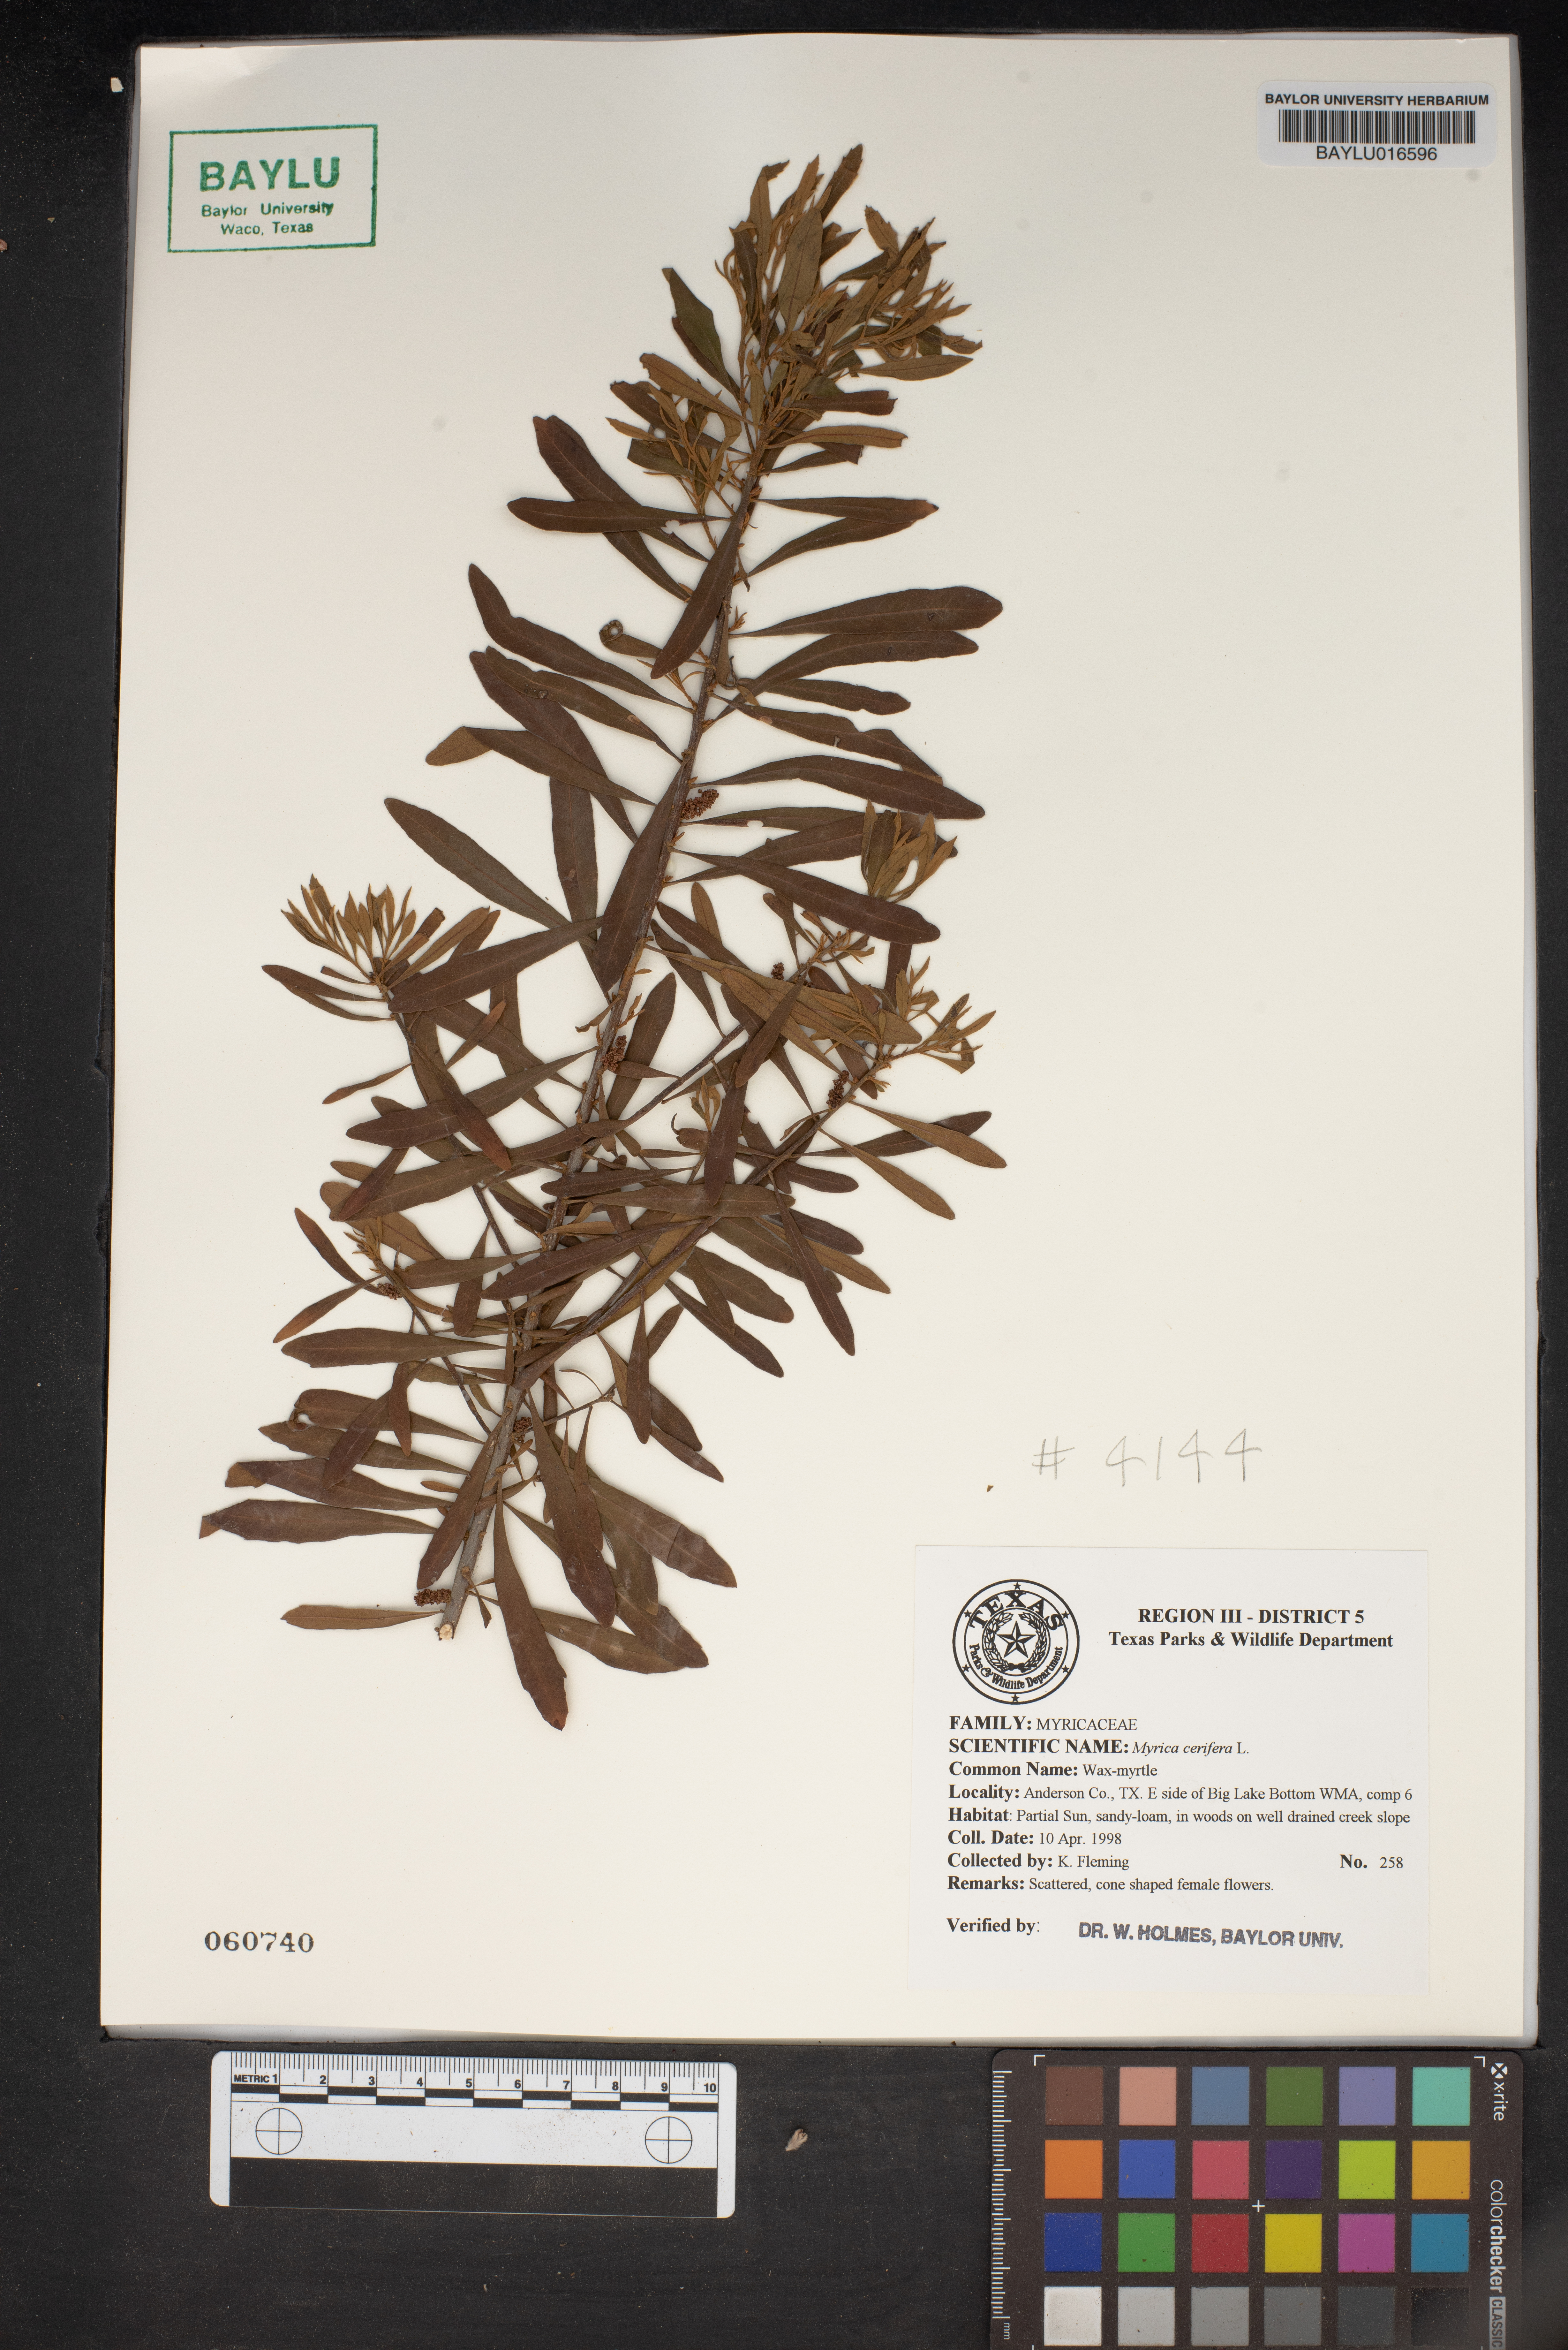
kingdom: Plantae
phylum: Tracheophyta
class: Magnoliopsida
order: Fagales
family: Myricaceae
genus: Morella
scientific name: Morella cerifera
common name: Wax myrtle
